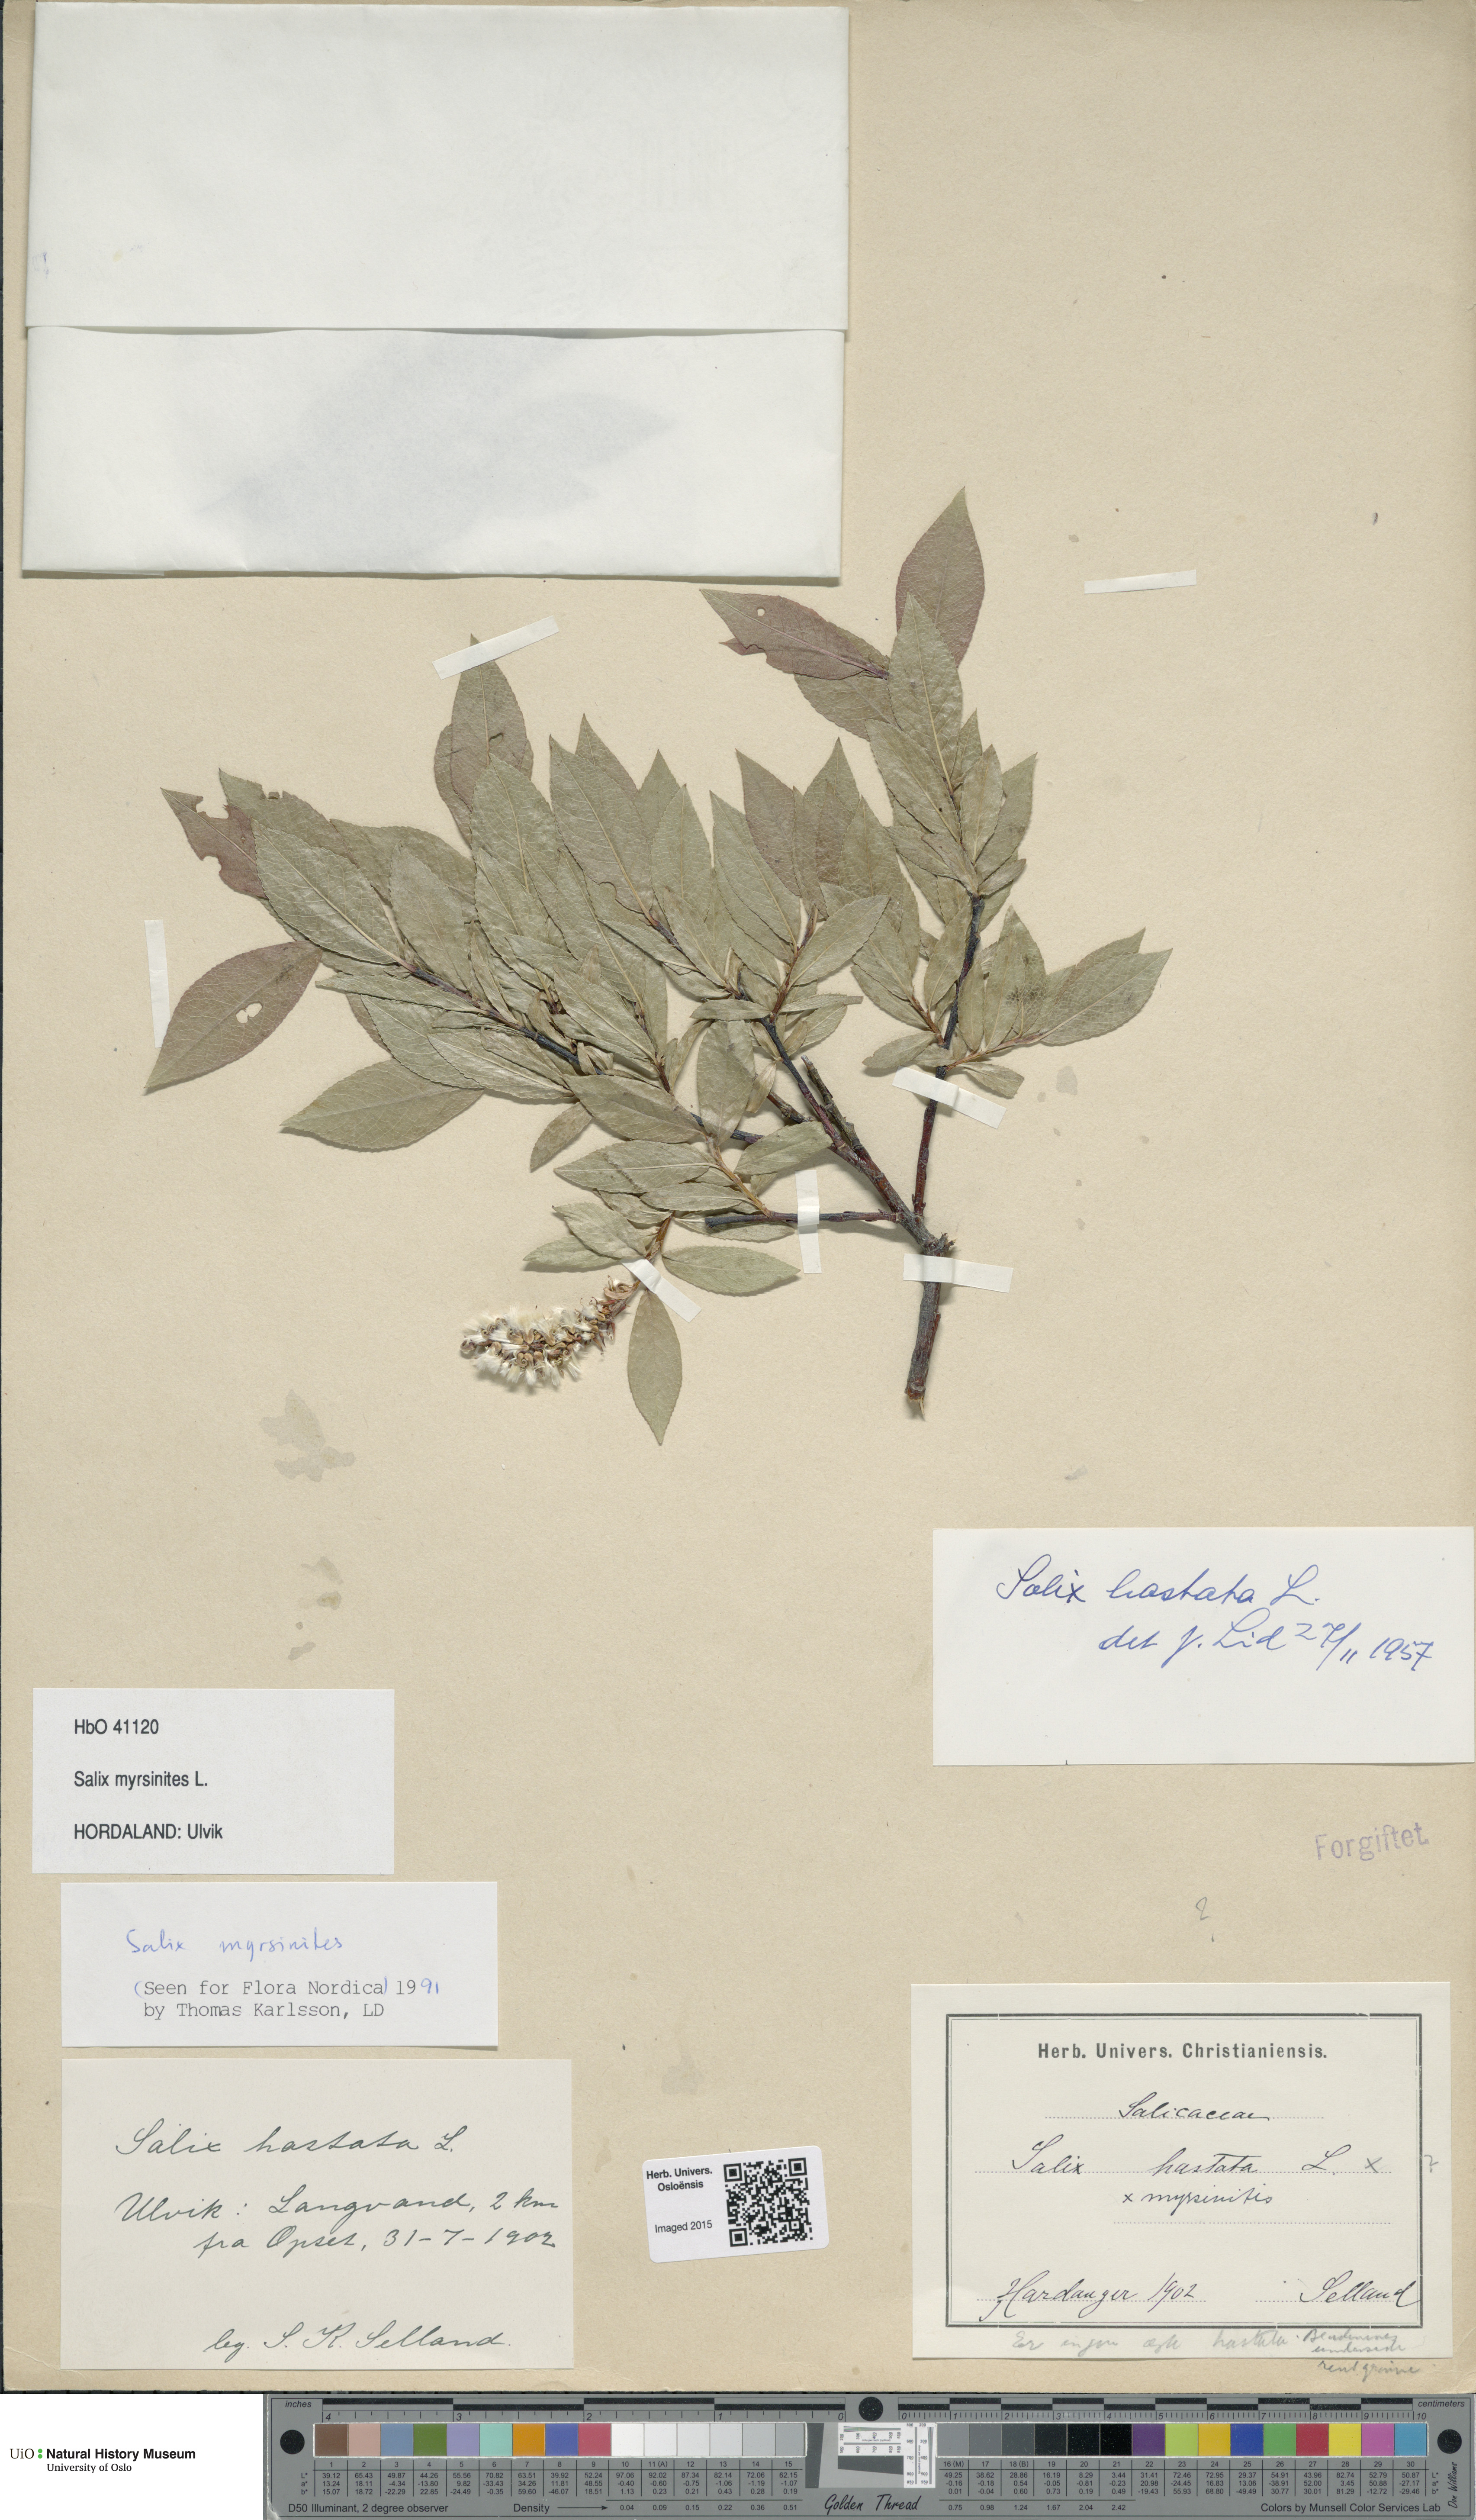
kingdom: Plantae
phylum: Tracheophyta
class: Magnoliopsida
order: Malpighiales
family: Salicaceae
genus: Salix
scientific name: Salix myrsinites
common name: Myrtle willow
